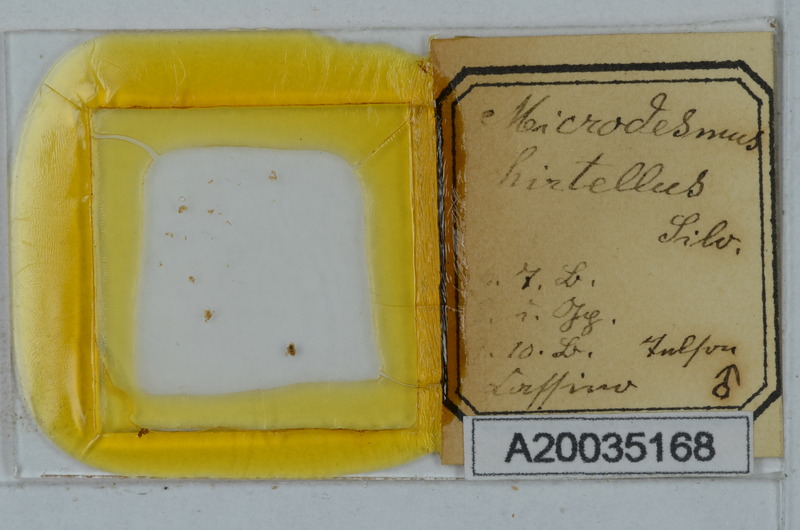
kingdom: Animalia
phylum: Arthropoda
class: Diplopoda
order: Polydesmida
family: Paradoxosomatidae
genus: Metonomastus
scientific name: Metonomastus hirtellus
